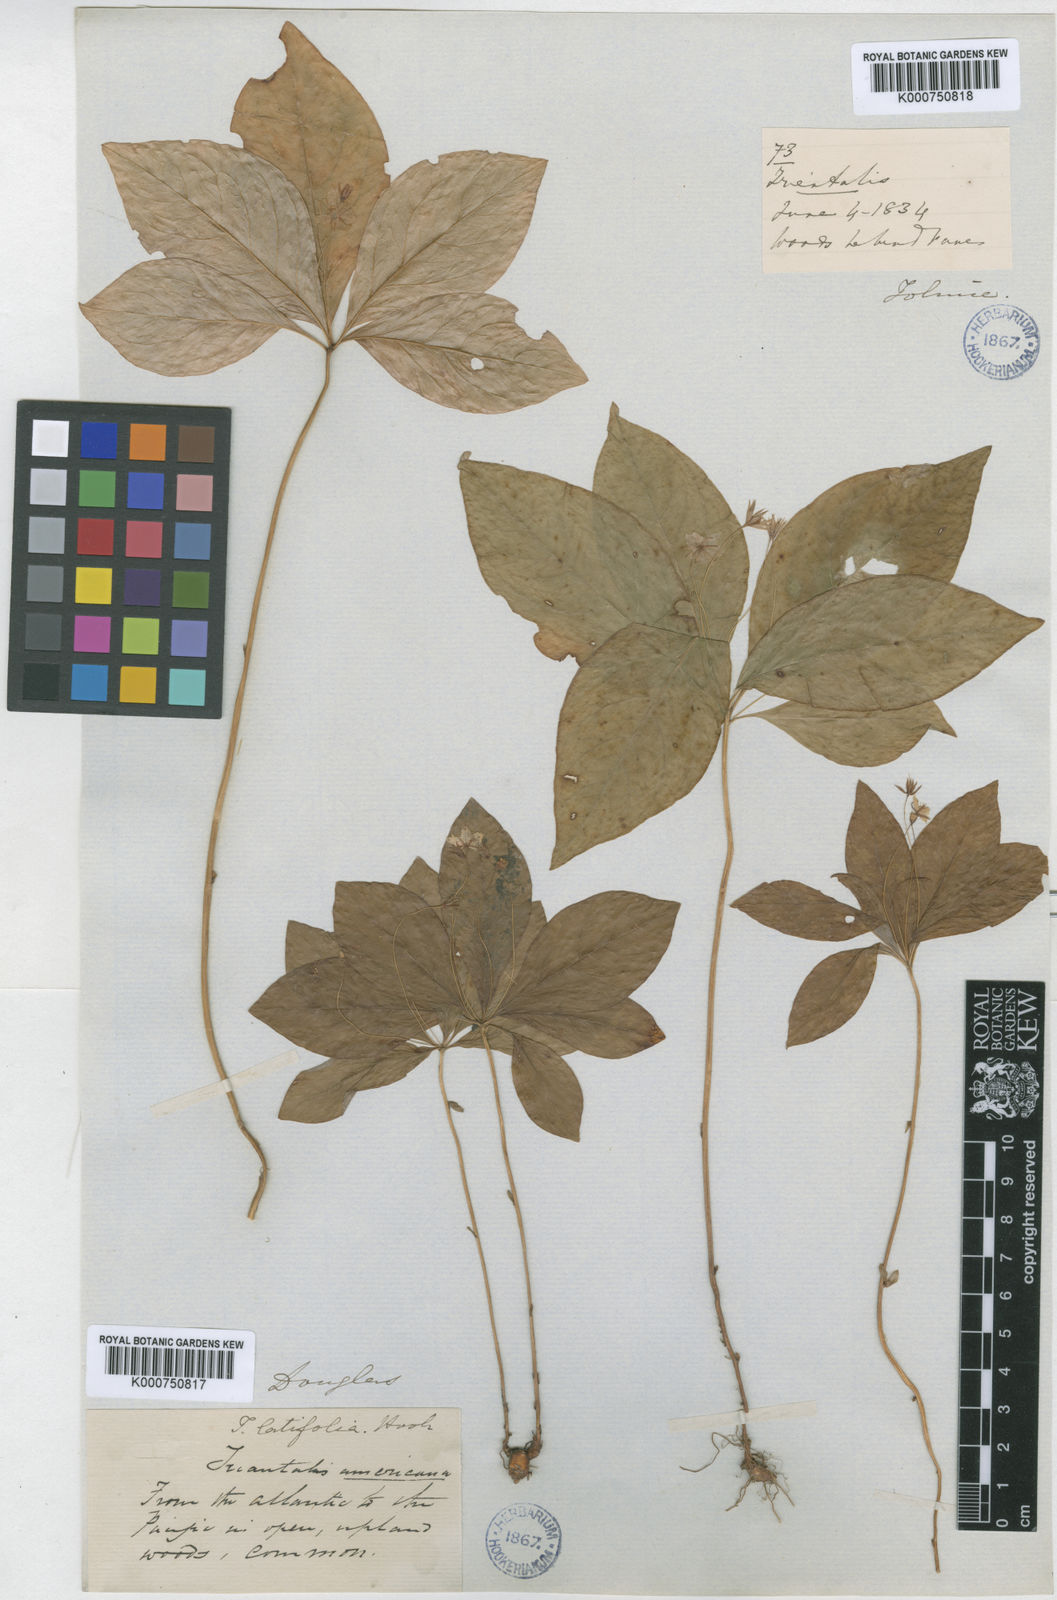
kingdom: Plantae
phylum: Tracheophyta
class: Magnoliopsida
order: Ericales
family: Primulaceae
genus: Lysimachia
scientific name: Lysimachia latifolia
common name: Pacific starflower
